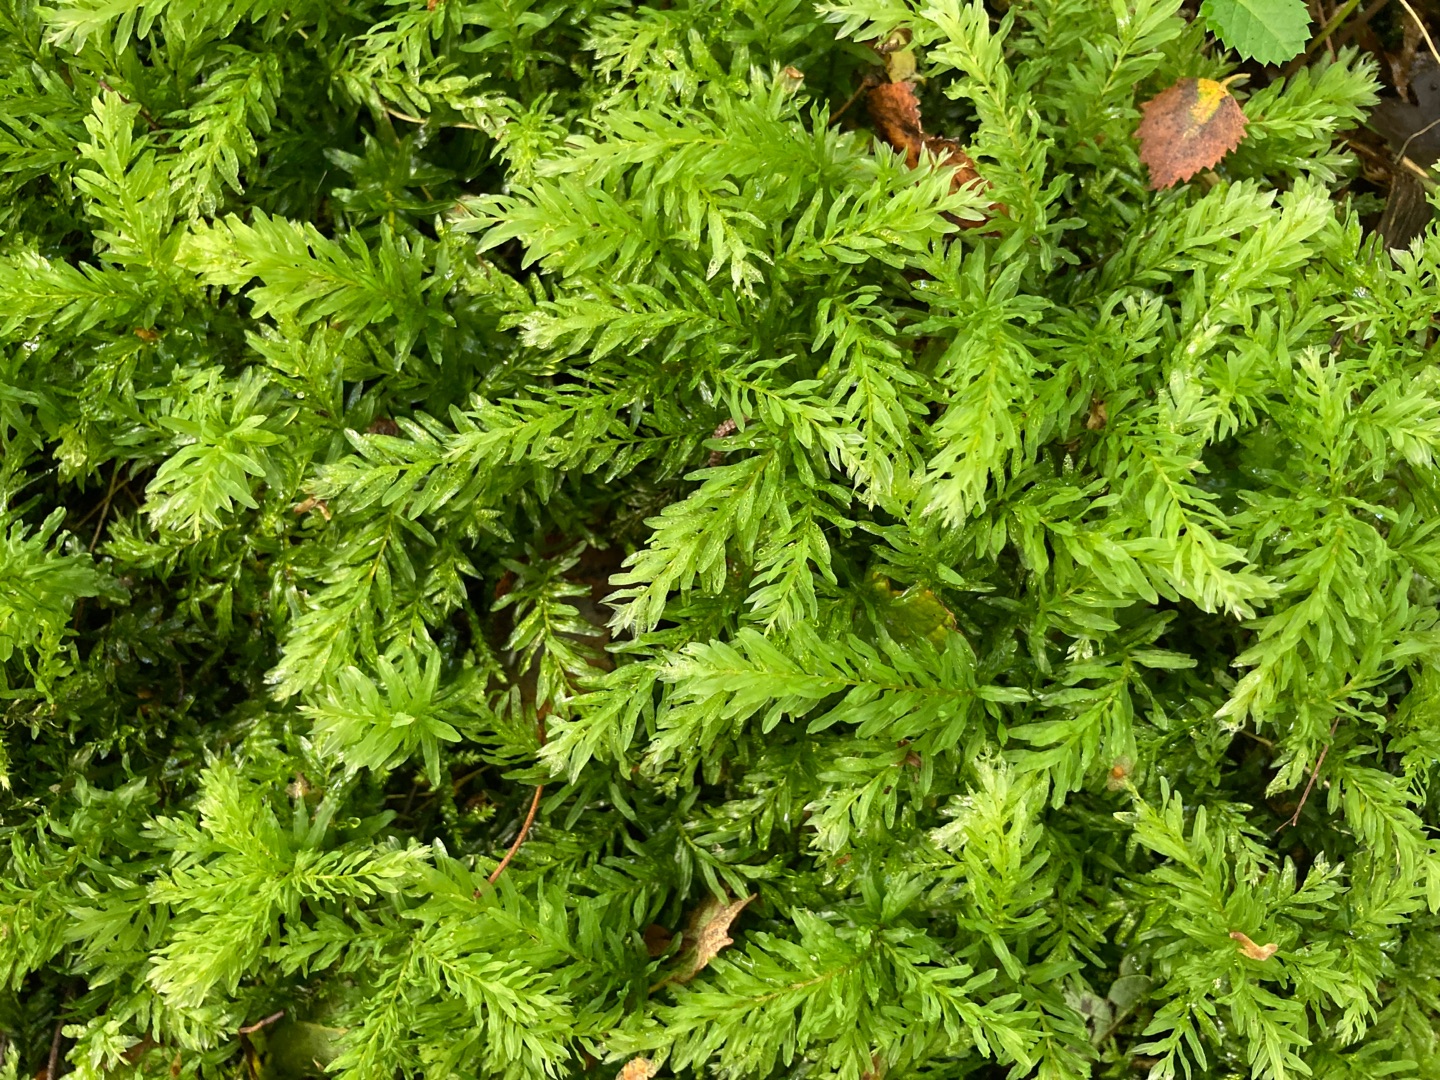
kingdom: Plantae
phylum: Bryophyta
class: Bryopsida
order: Bryales
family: Mniaceae
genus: Plagiomnium
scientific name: Plagiomnium undulatum
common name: Bølget krybstjerne
